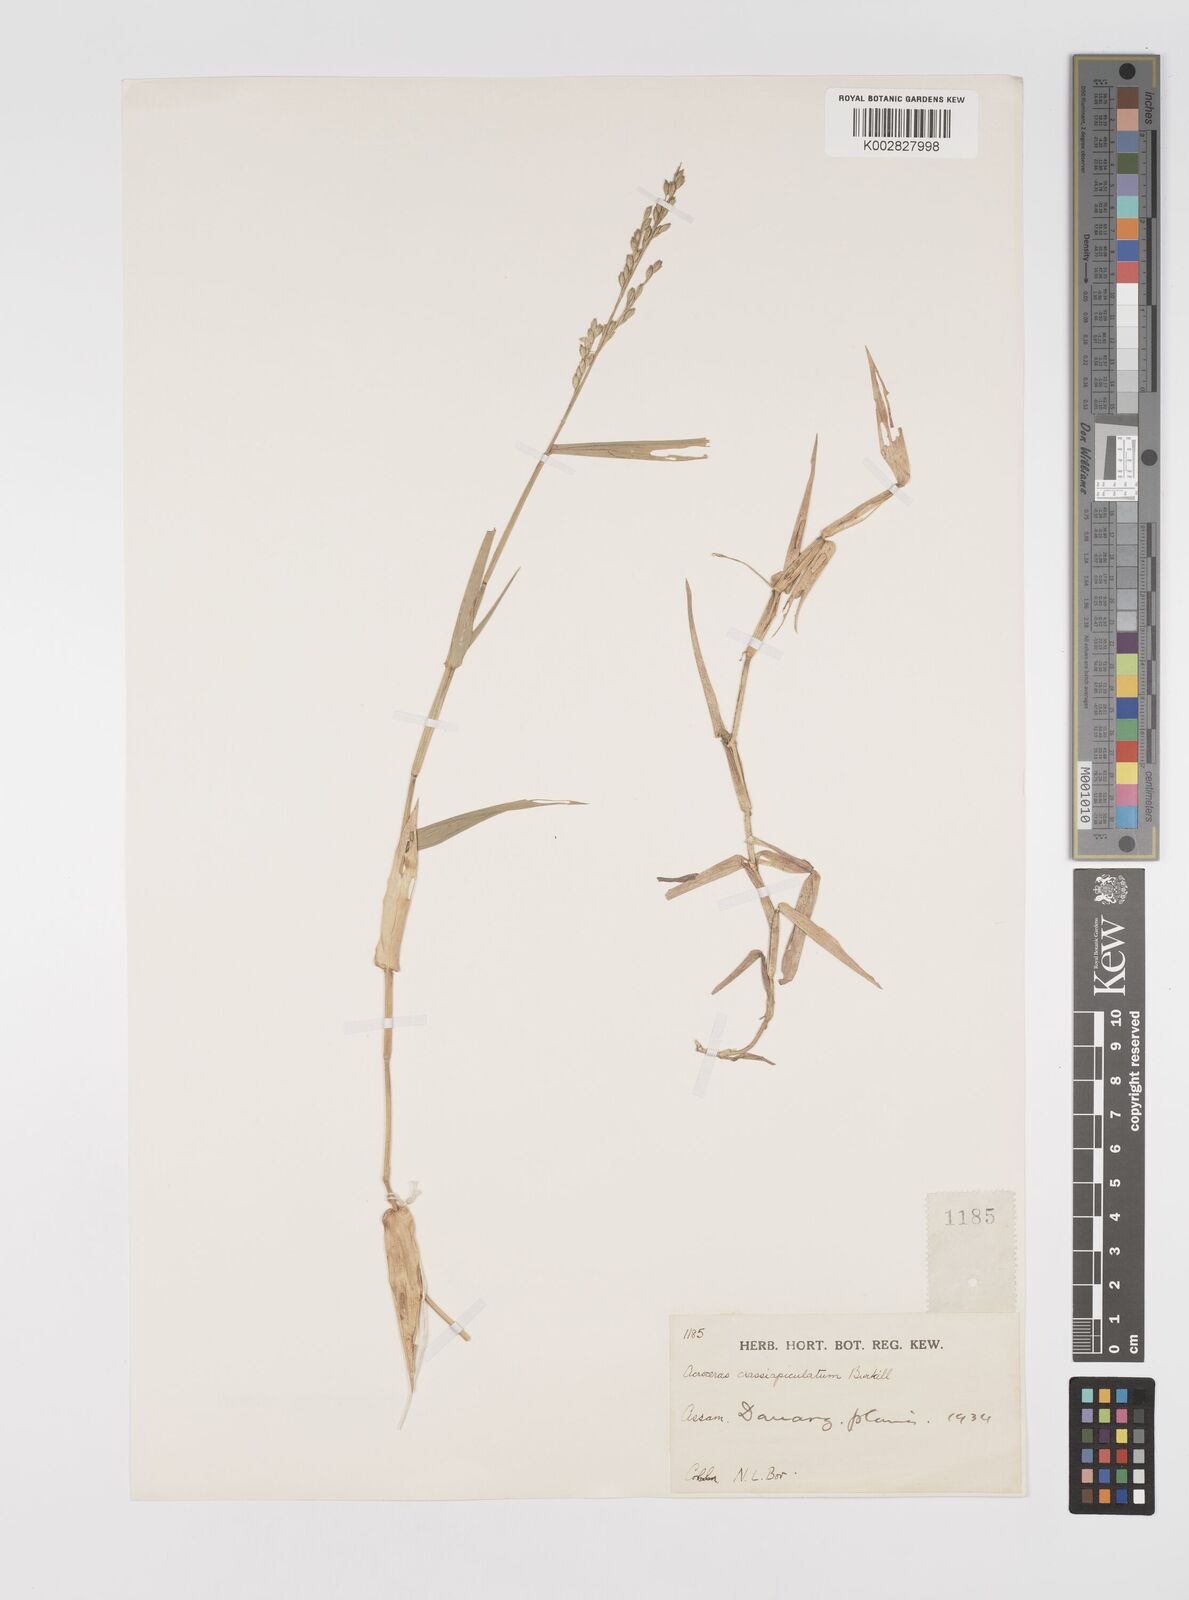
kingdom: Plantae
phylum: Tracheophyta
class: Liliopsida
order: Poales
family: Poaceae
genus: Acroceras
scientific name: Acroceras munroanum
